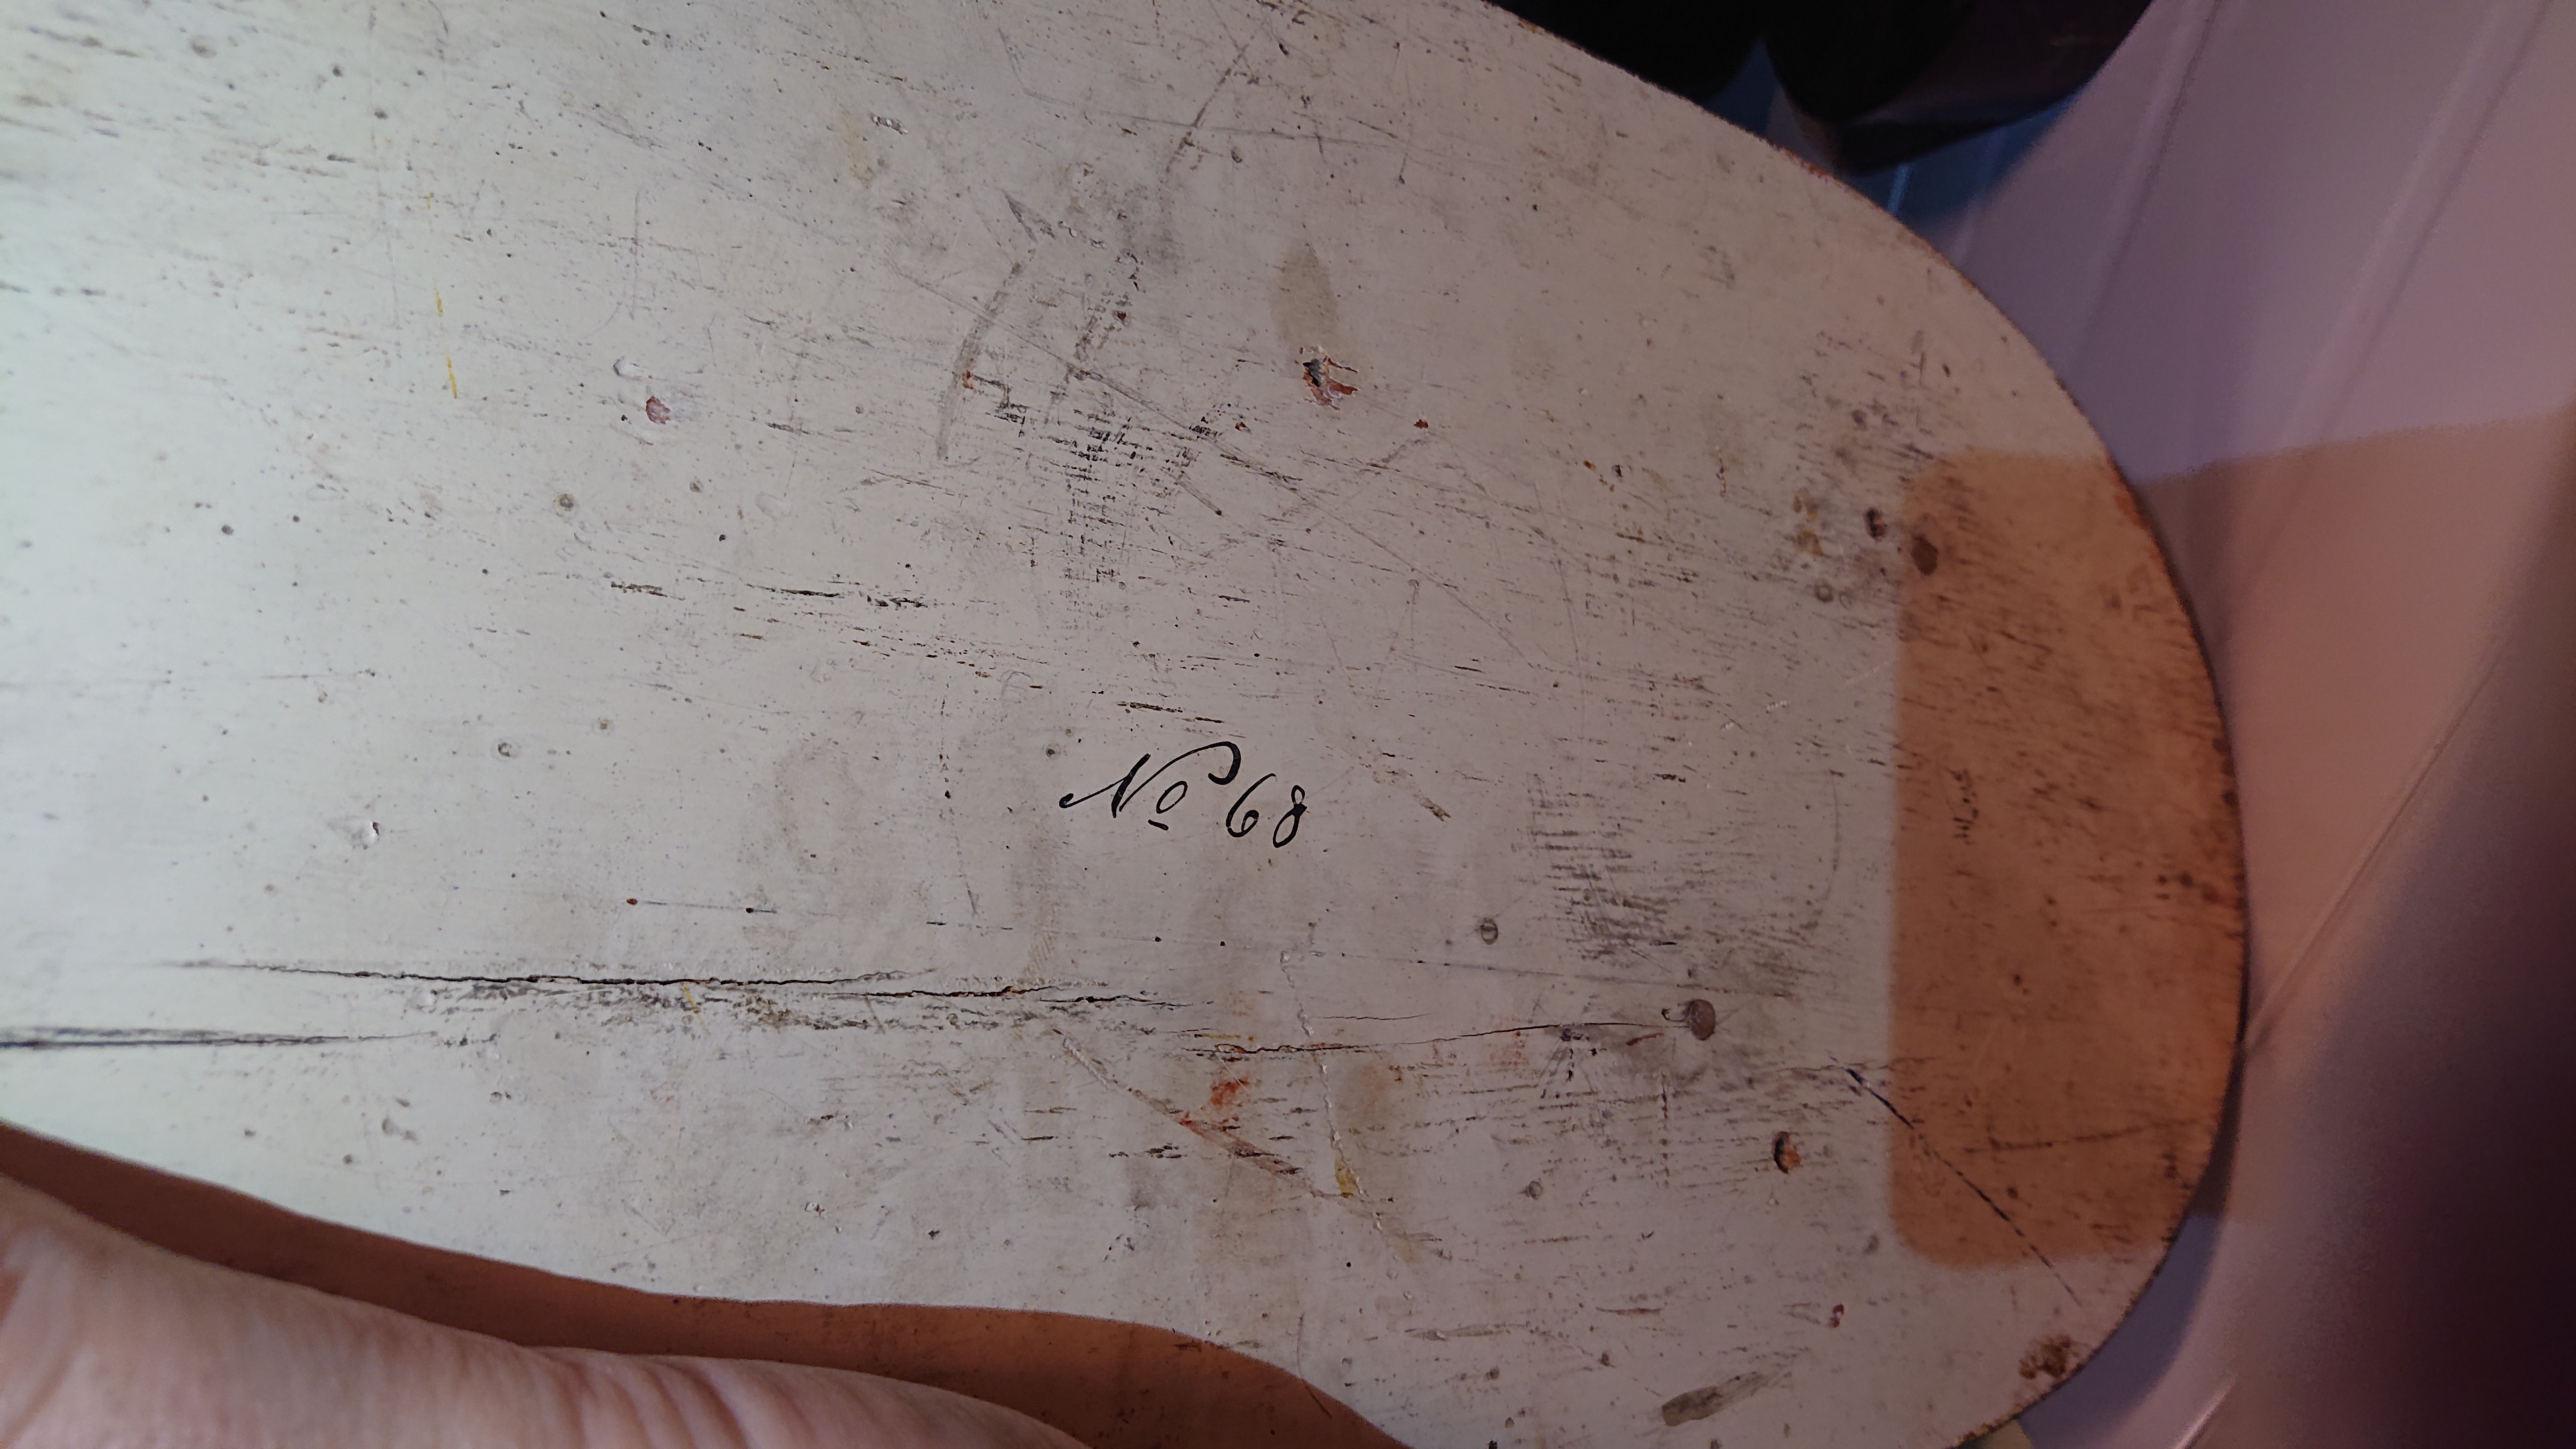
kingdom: Animalia
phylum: Chordata
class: Mammalia
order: Primates
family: Cercopithecidae
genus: Papio
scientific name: Papio cynocephalus
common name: Yellow baboon
